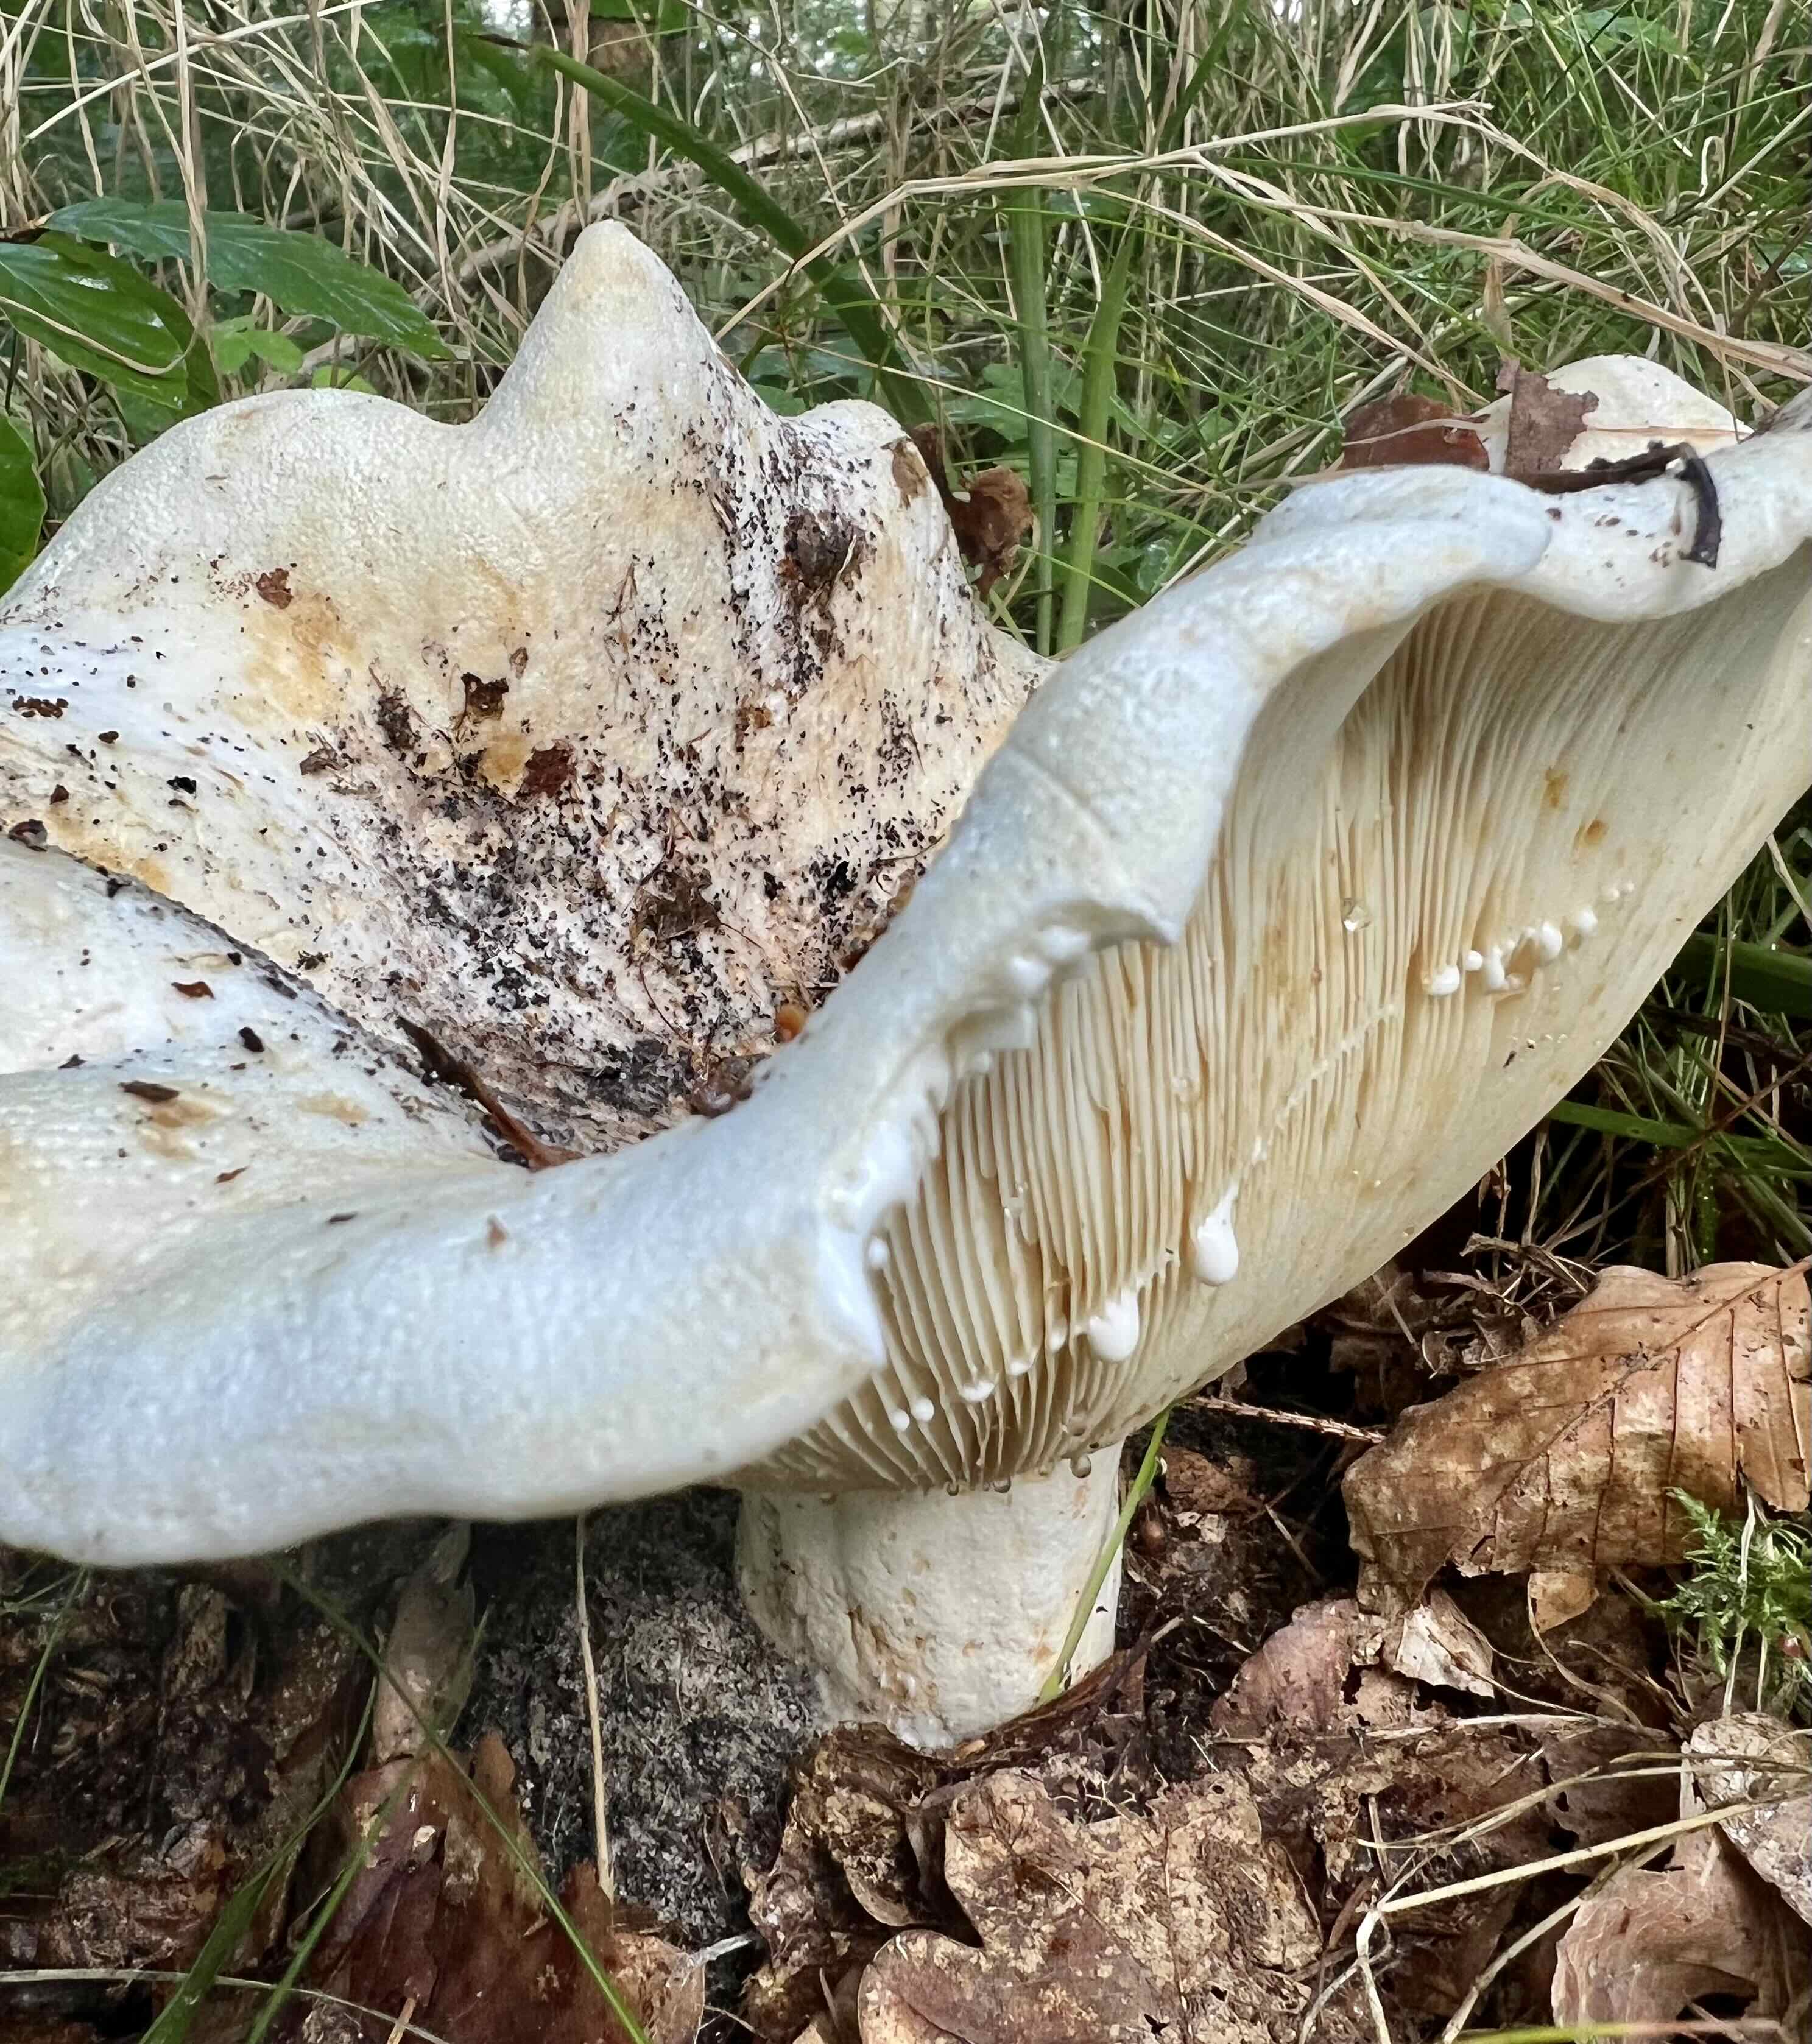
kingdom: Fungi
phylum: Basidiomycota
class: Agaricomycetes
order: Russulales
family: Russulaceae
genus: Lactifluus
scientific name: Lactifluus
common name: mælkehat
